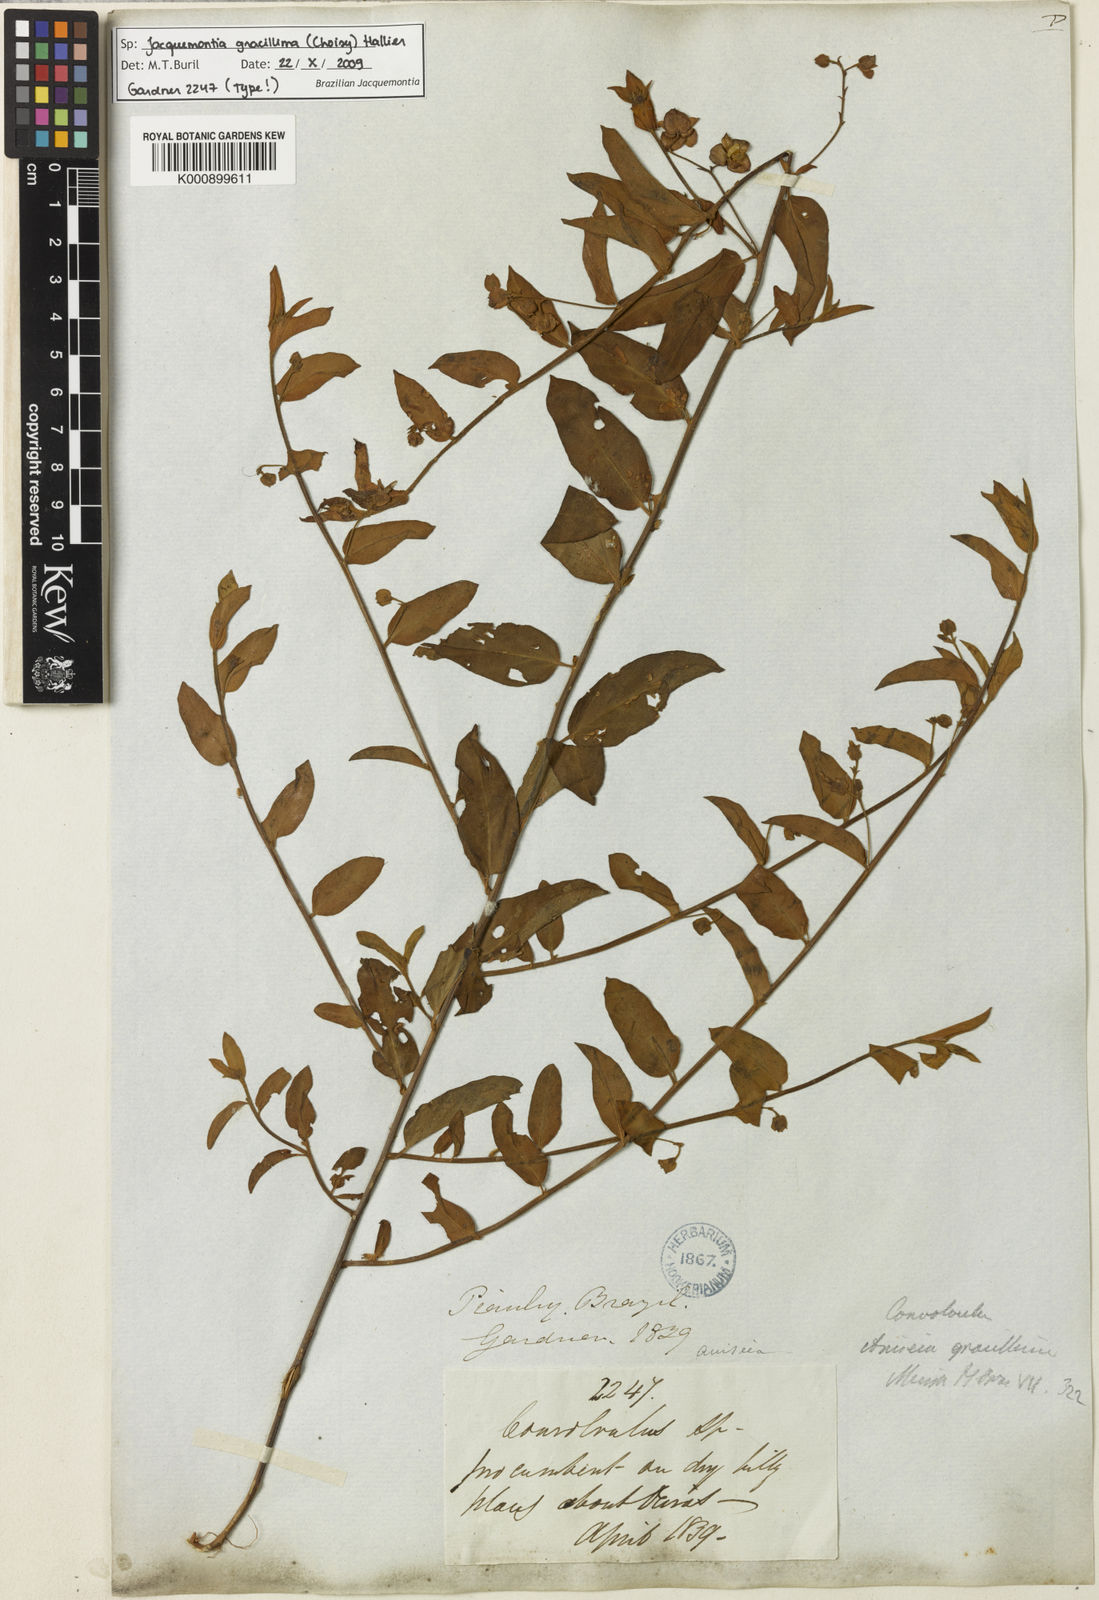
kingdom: Plantae
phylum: Tracheophyta
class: Magnoliopsida
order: Solanales
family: Convolvulaceae
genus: Jacquemontia
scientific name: Jacquemontia gracillima
